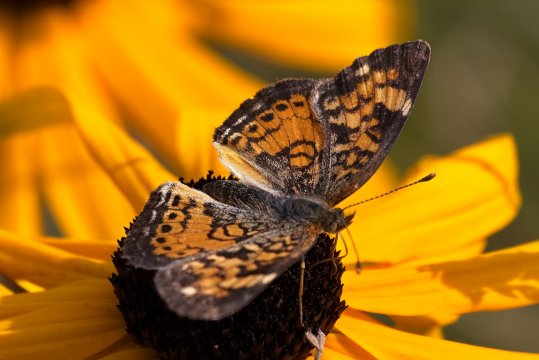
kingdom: Animalia
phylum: Arthropoda
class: Insecta
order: Lepidoptera
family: Nymphalidae
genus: Phyciodes
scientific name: Phyciodes tharos
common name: Northern Crescent
